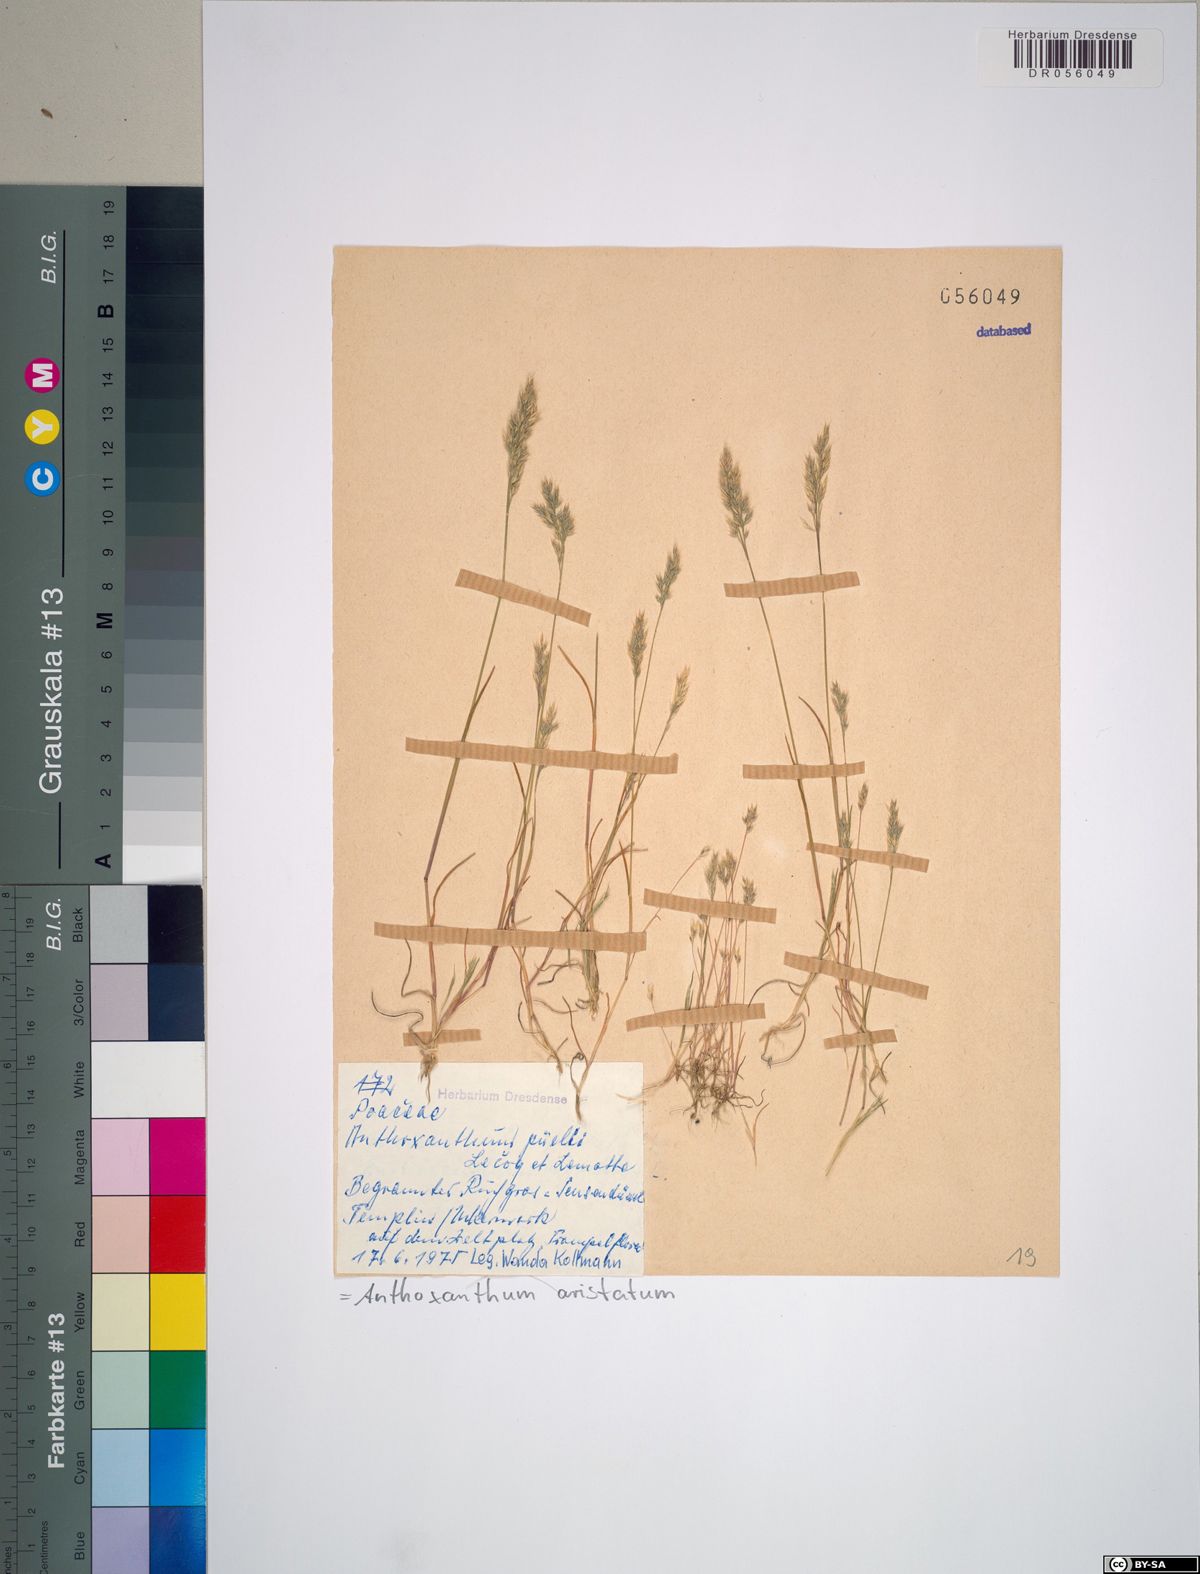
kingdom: Plantae
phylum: Tracheophyta
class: Liliopsida
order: Poales
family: Poaceae
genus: Anthoxanthum
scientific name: Anthoxanthum aristatum
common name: Annual vernal-grass
